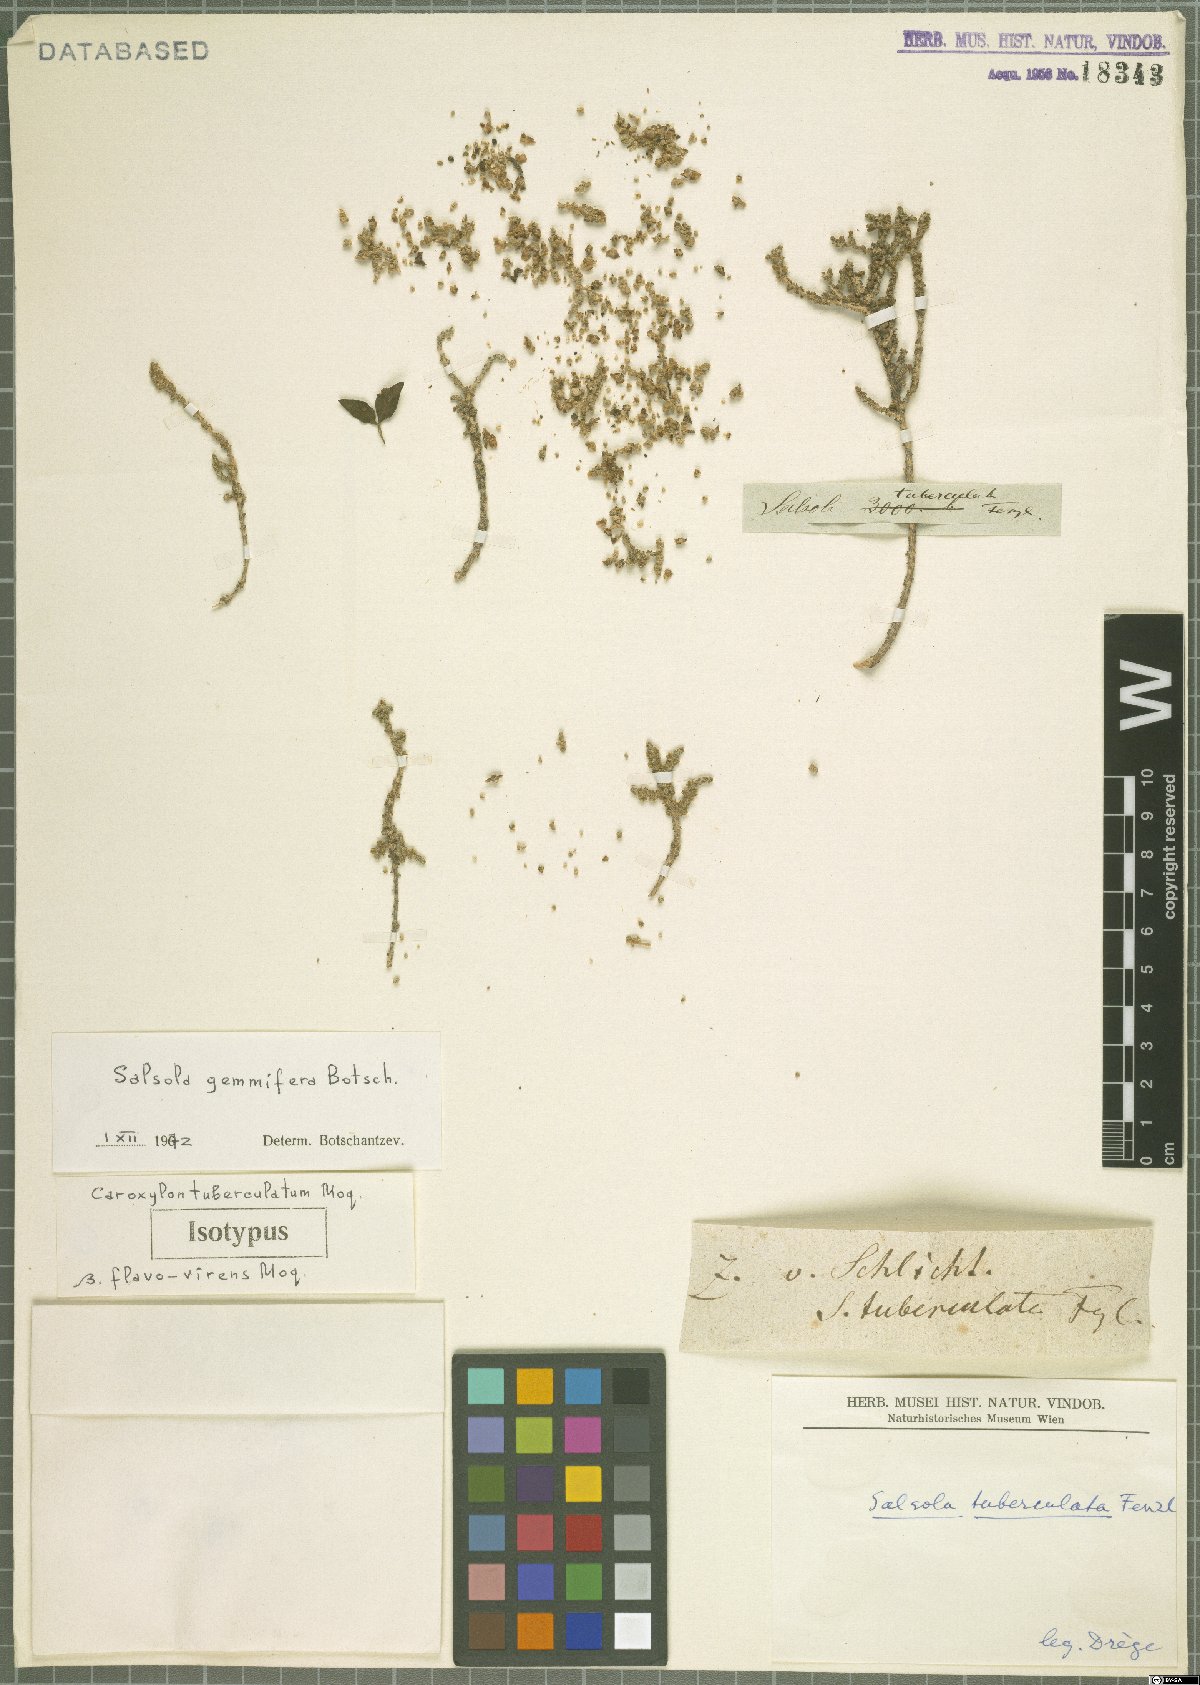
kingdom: Plantae
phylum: Tracheophyta
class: Magnoliopsida
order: Caryophyllales
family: Amaranthaceae
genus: Caroxylon
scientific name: Caroxylon gemmiferum
